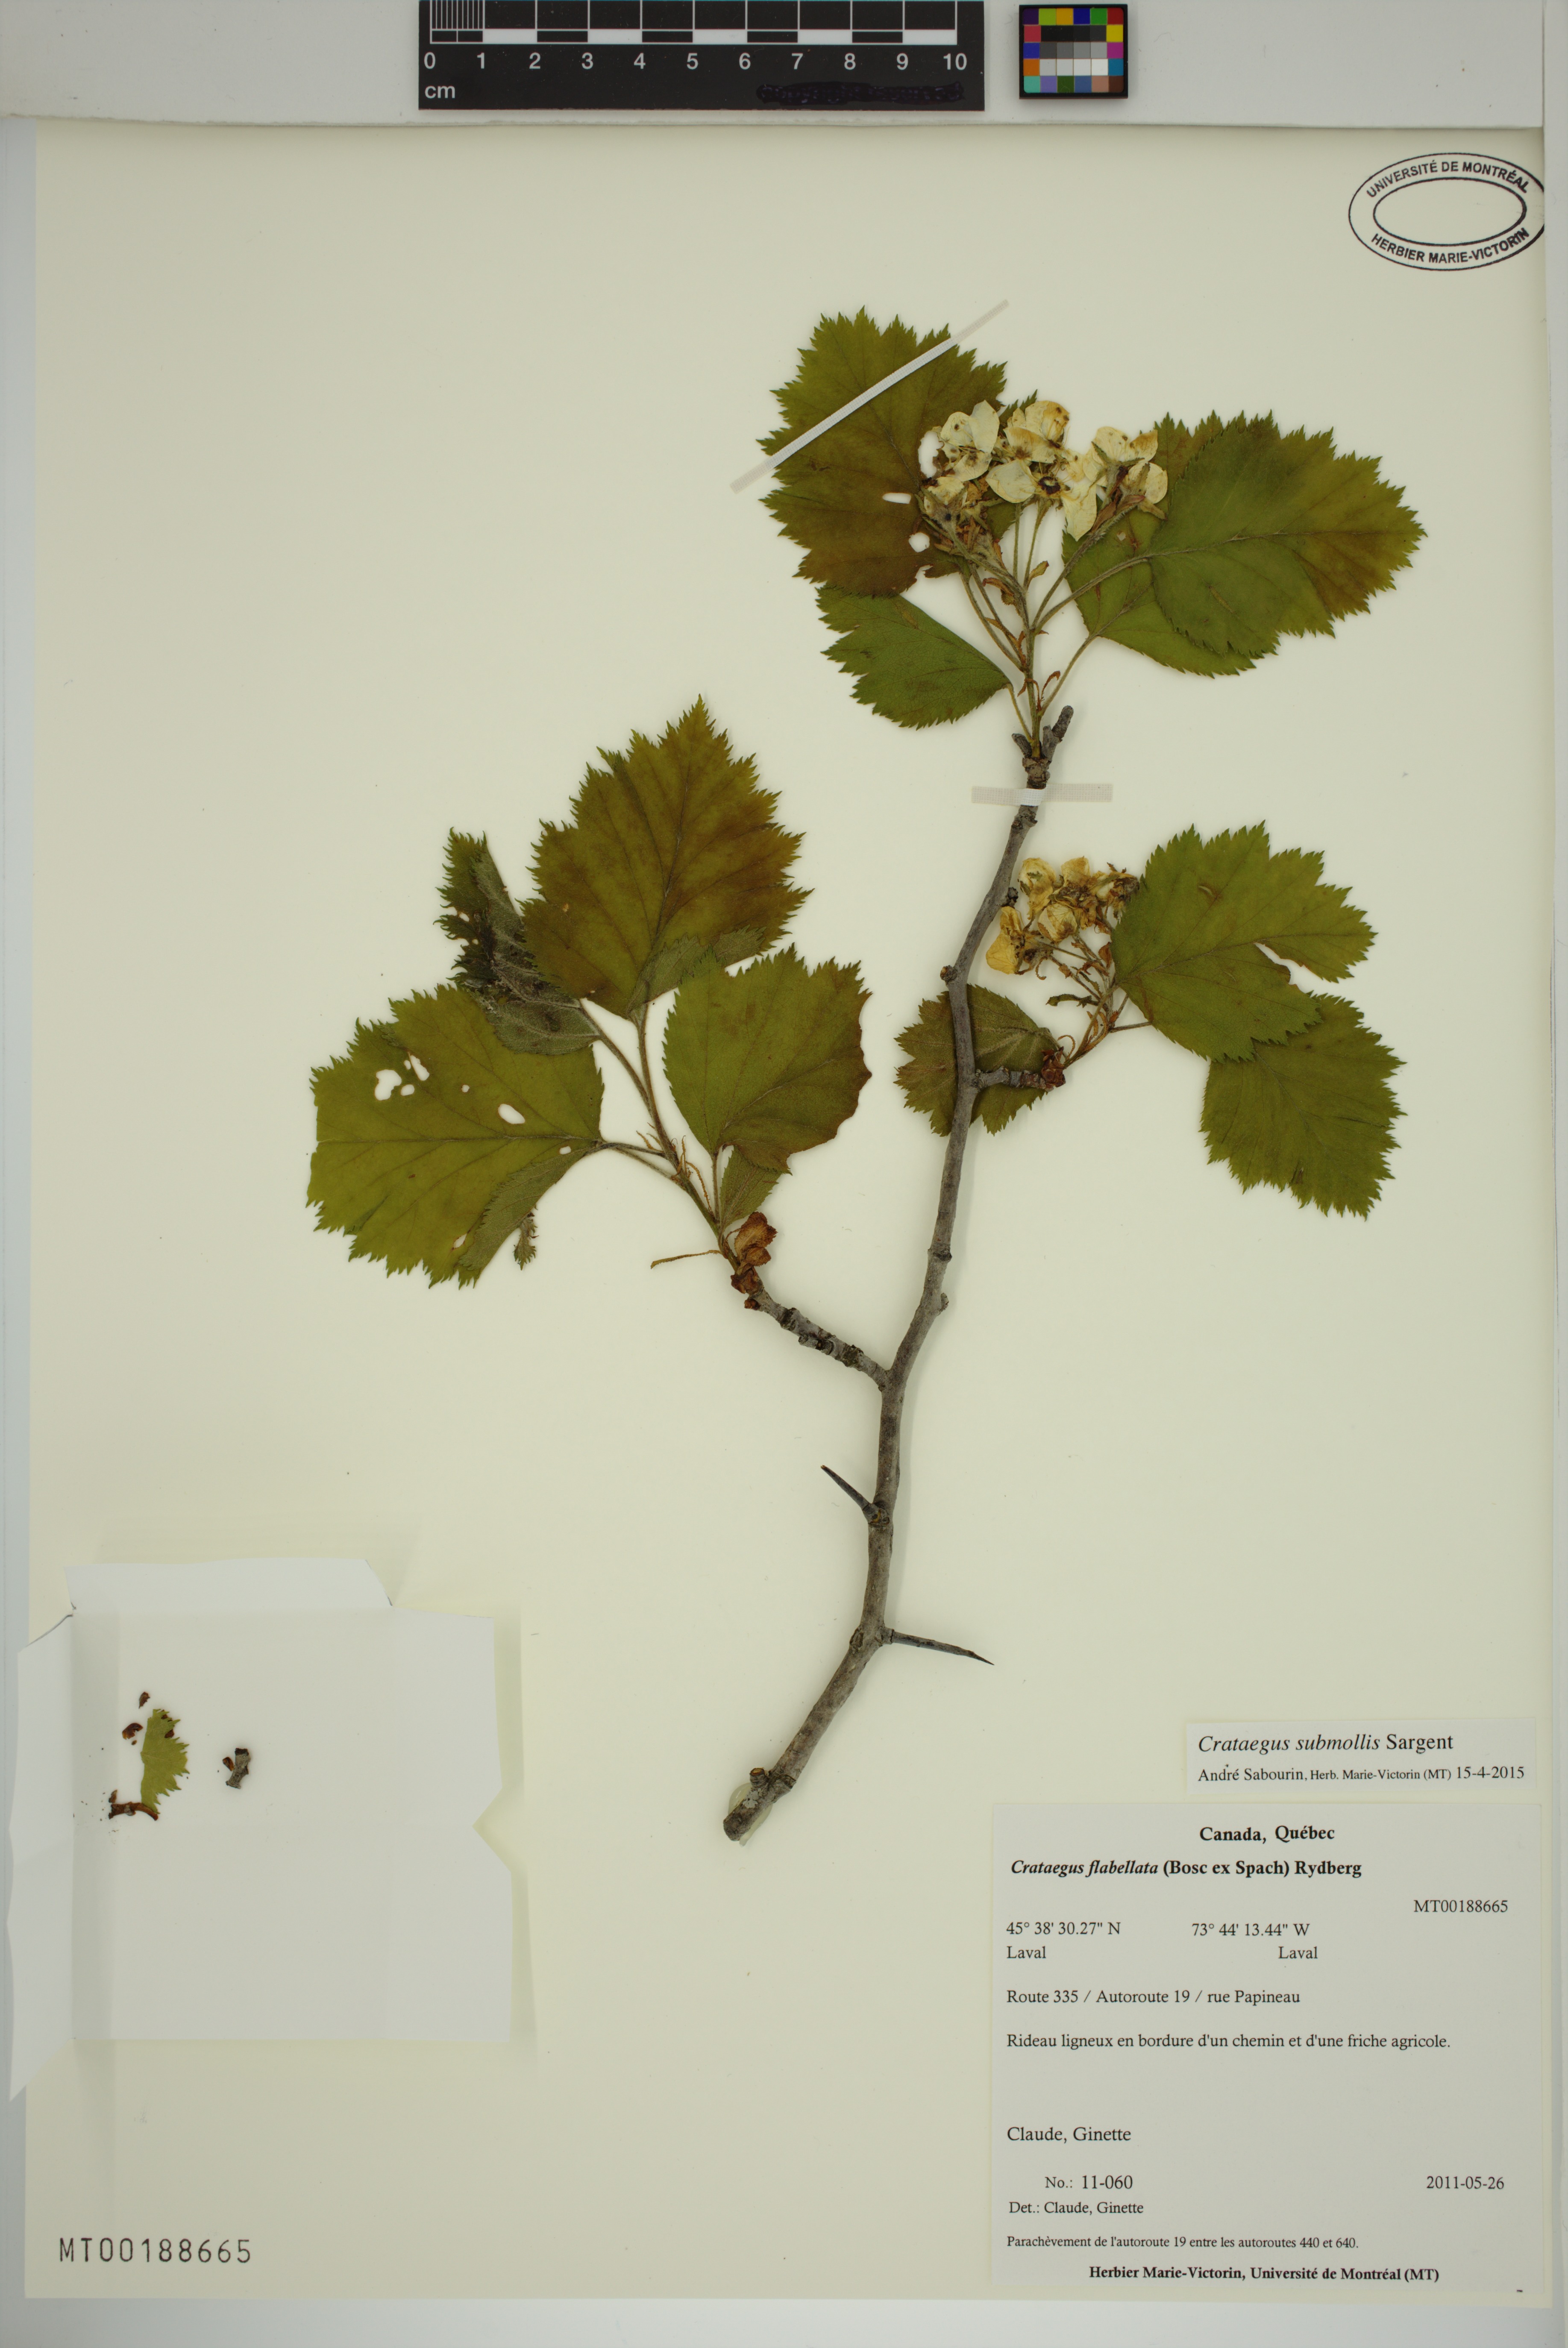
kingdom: Plantae
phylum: Tracheophyta
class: Magnoliopsida
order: Rosales
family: Rosaceae
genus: Crataegus
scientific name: Crataegus submollis
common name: Hairy cockspurthorn
